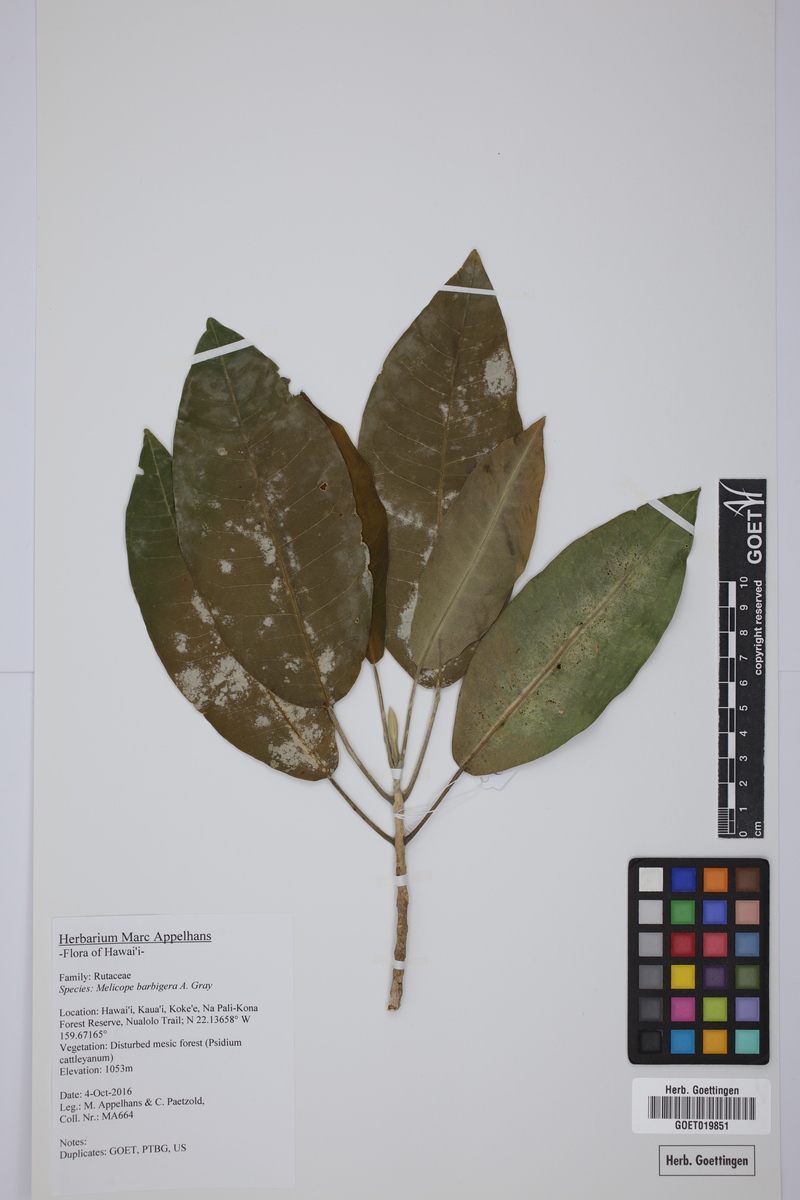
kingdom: Plantae
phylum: Tracheophyta
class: Magnoliopsida
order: Sapindales
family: Rutaceae
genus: Melicope
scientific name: Melicope barbigera
